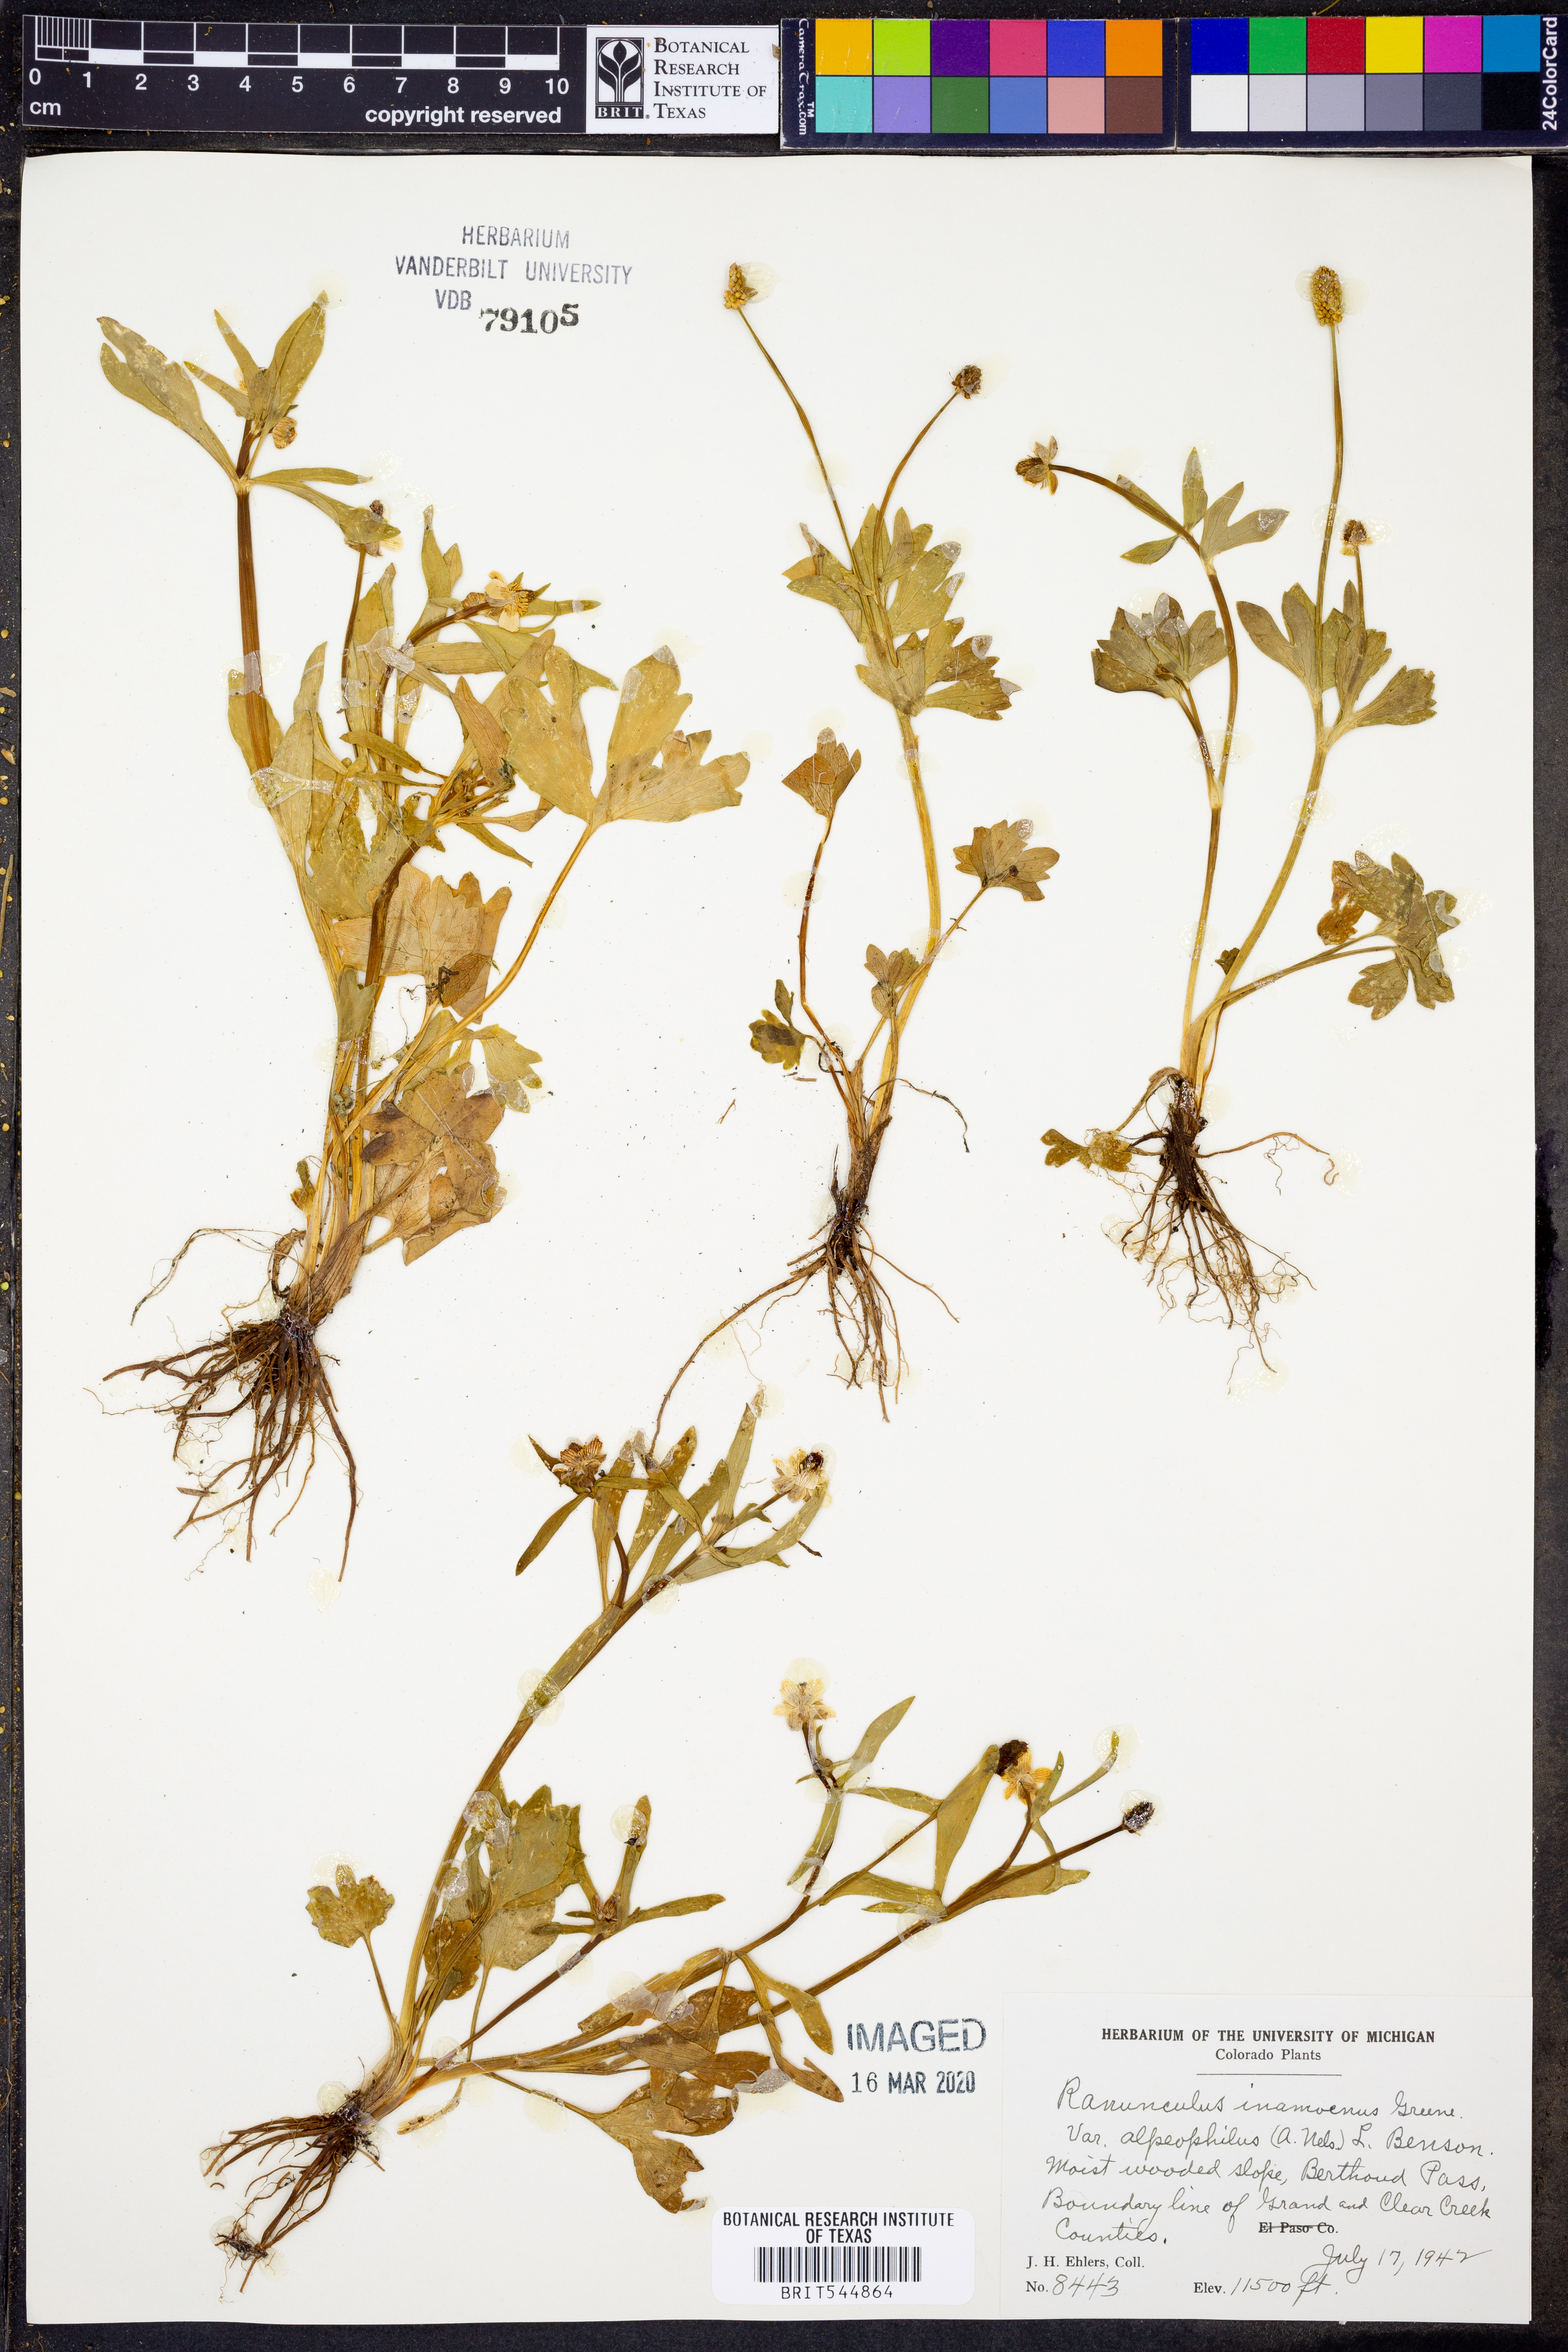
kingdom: Plantae
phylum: Tracheophyta
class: Magnoliopsida
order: Ranunculales
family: Ranunculaceae
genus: Ranunculus
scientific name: Ranunculus inamoenus
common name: Graceful buttercup
